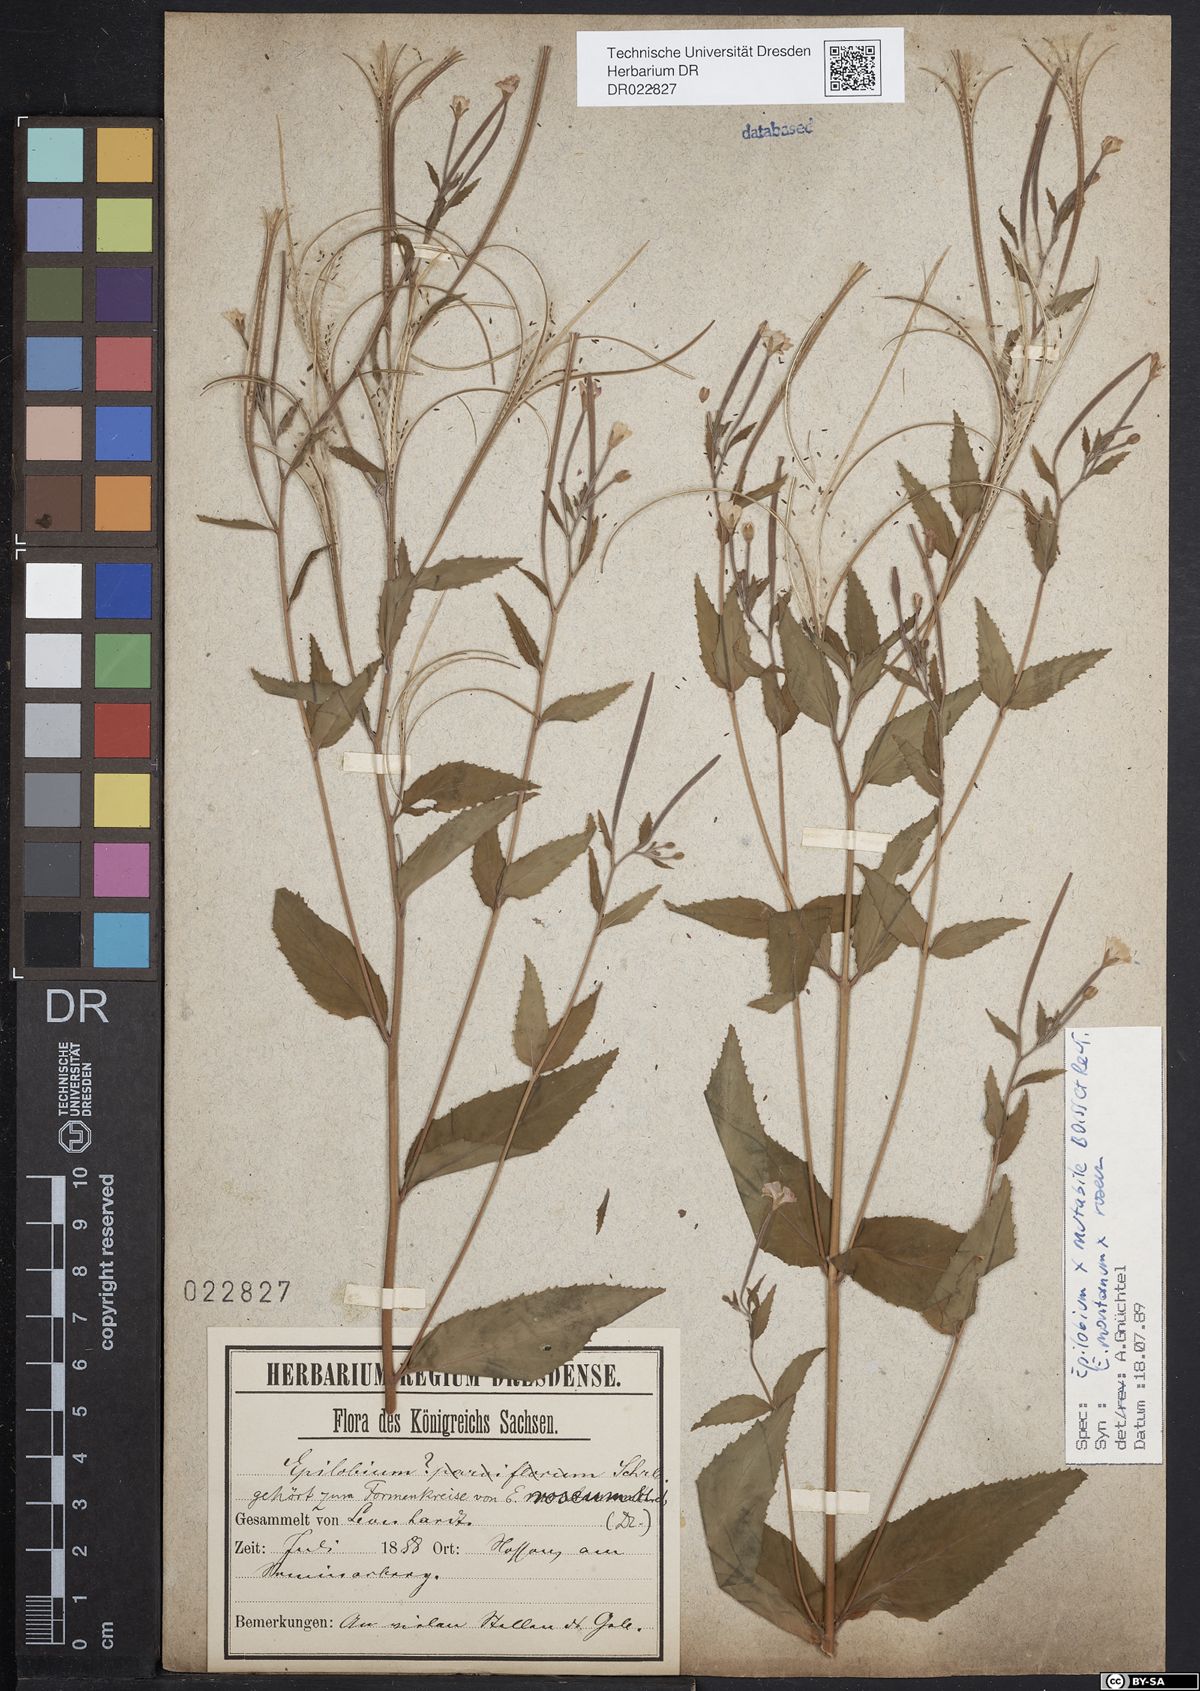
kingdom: Plantae
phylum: Tracheophyta
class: Magnoliopsida
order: Myrtales
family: Onagraceae
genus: Epilobium
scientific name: Epilobium heterocaulon
